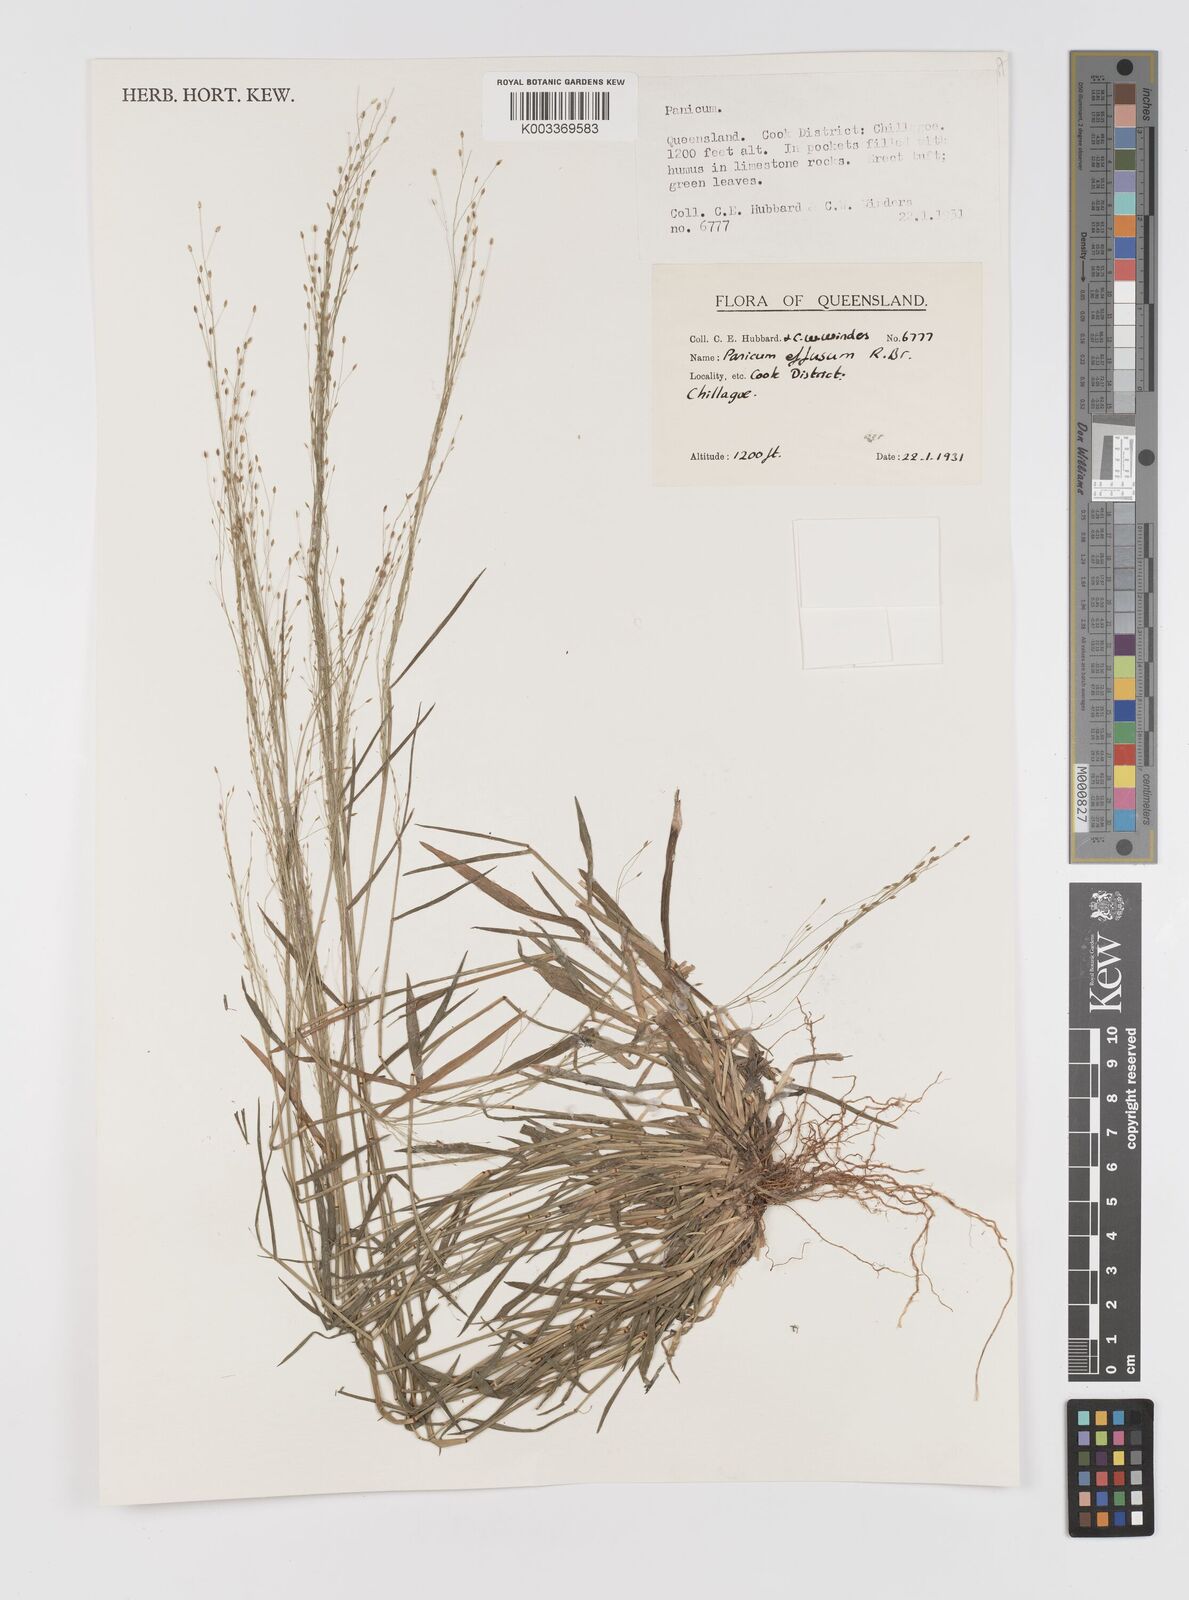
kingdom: Plantae
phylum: Tracheophyta
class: Liliopsida
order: Poales
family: Poaceae
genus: Panicum
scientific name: Panicum decompositum
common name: Australian millet
